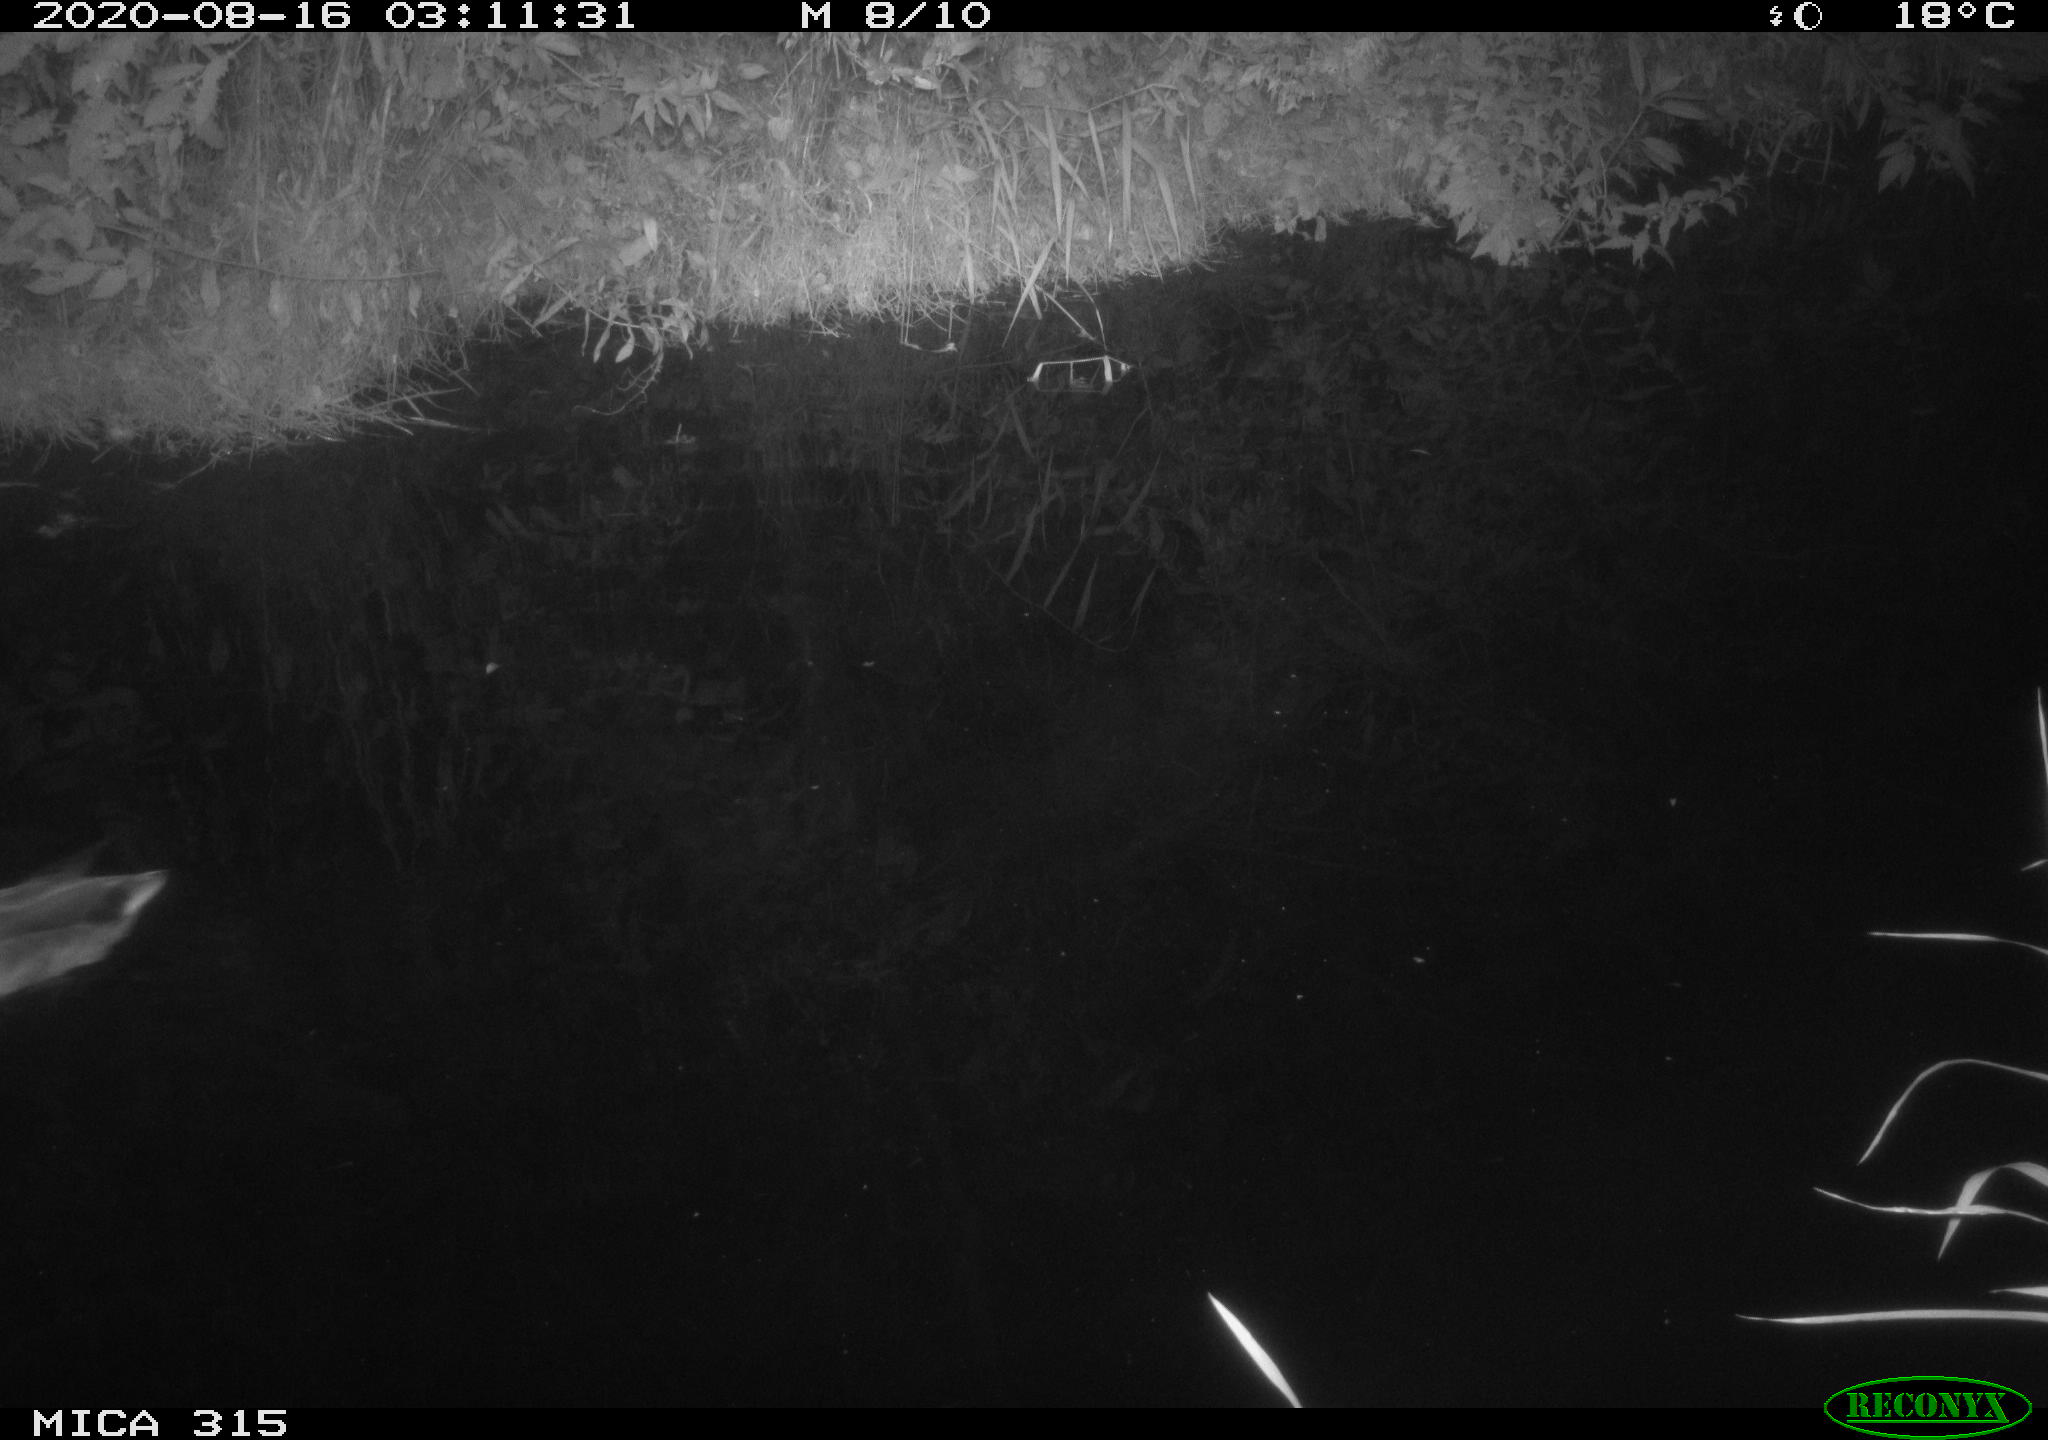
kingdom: Animalia
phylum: Chordata
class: Aves
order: Anseriformes
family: Anatidae
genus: Anas
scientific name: Anas platyrhynchos
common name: Mallard
